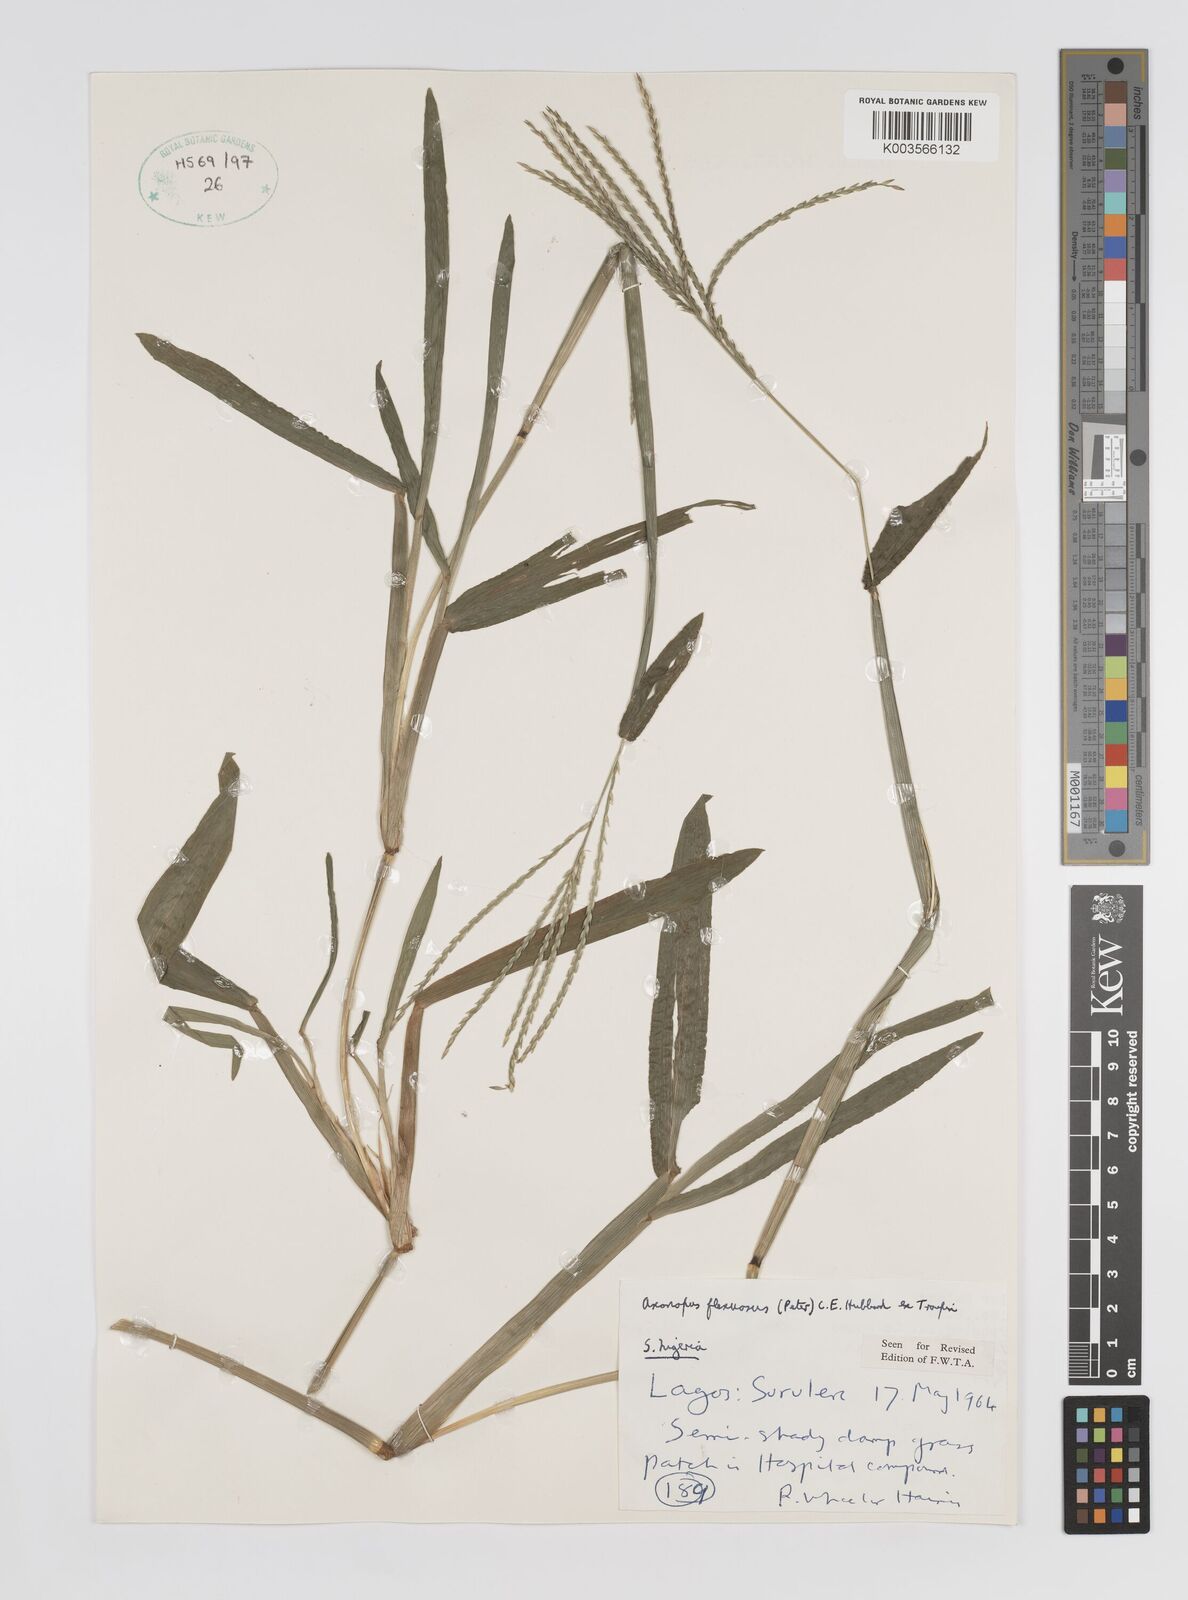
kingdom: Plantae
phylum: Tracheophyta
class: Liliopsida
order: Poales
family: Poaceae
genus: Axonopus
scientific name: Axonopus flexuosus
